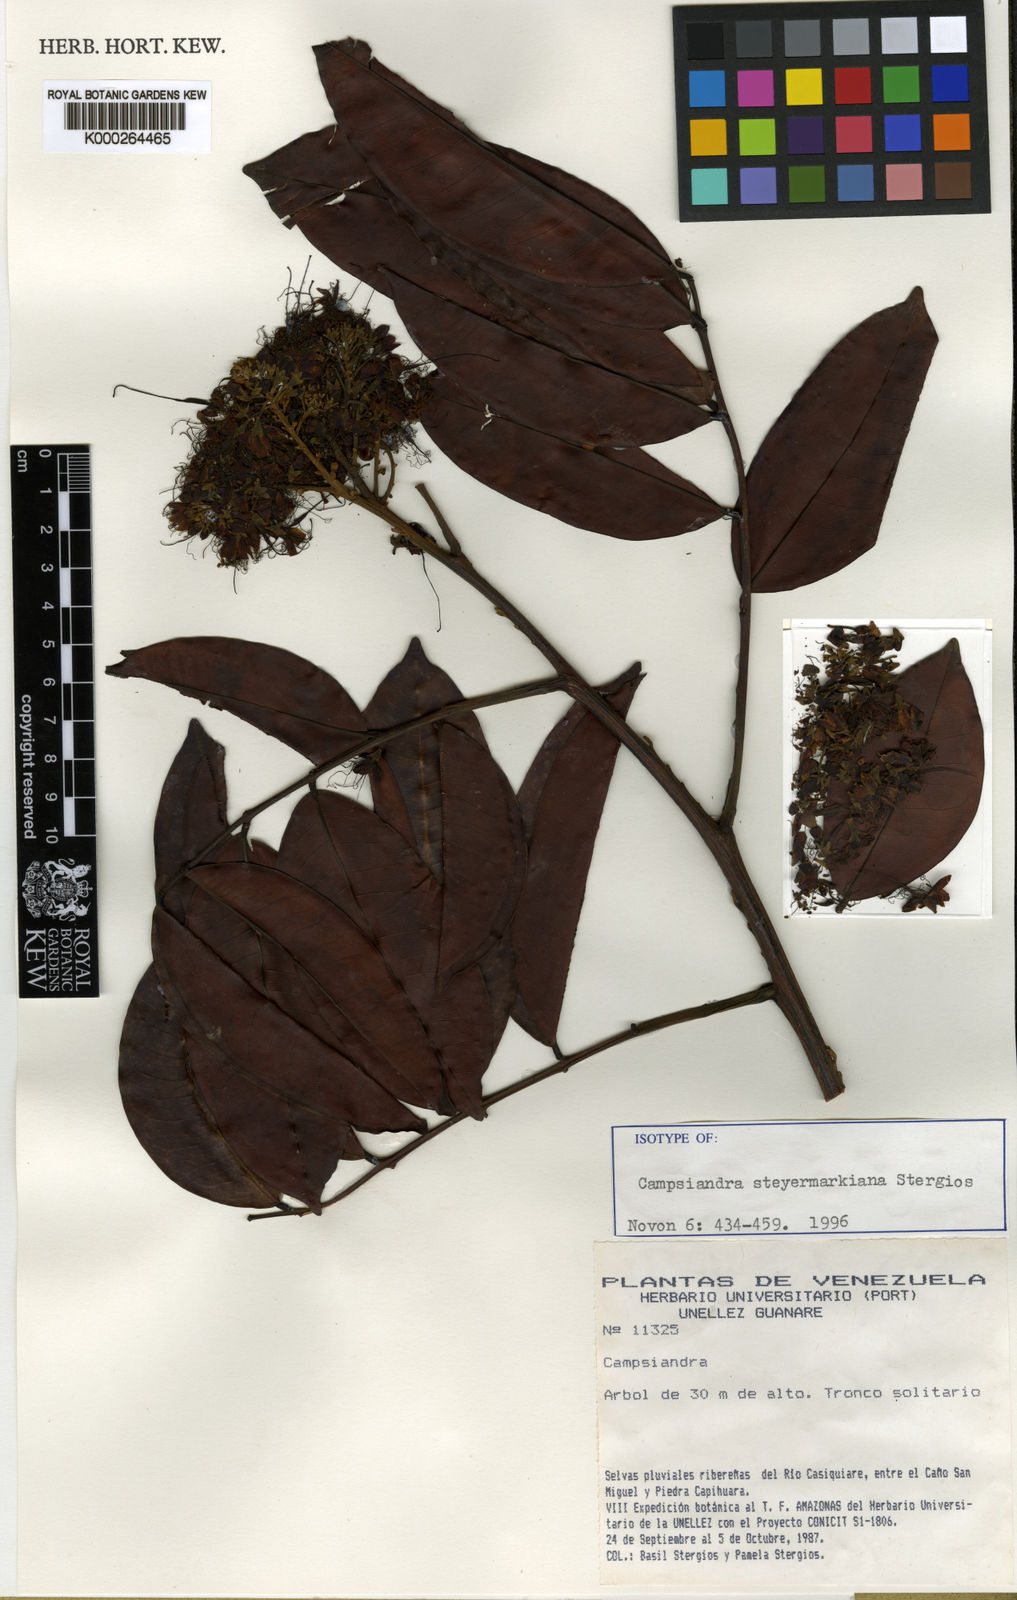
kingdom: Plantae
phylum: Tracheophyta
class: Magnoliopsida
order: Fabales
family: Fabaceae
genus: Campsiandra
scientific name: Campsiandra steyermarkiana
